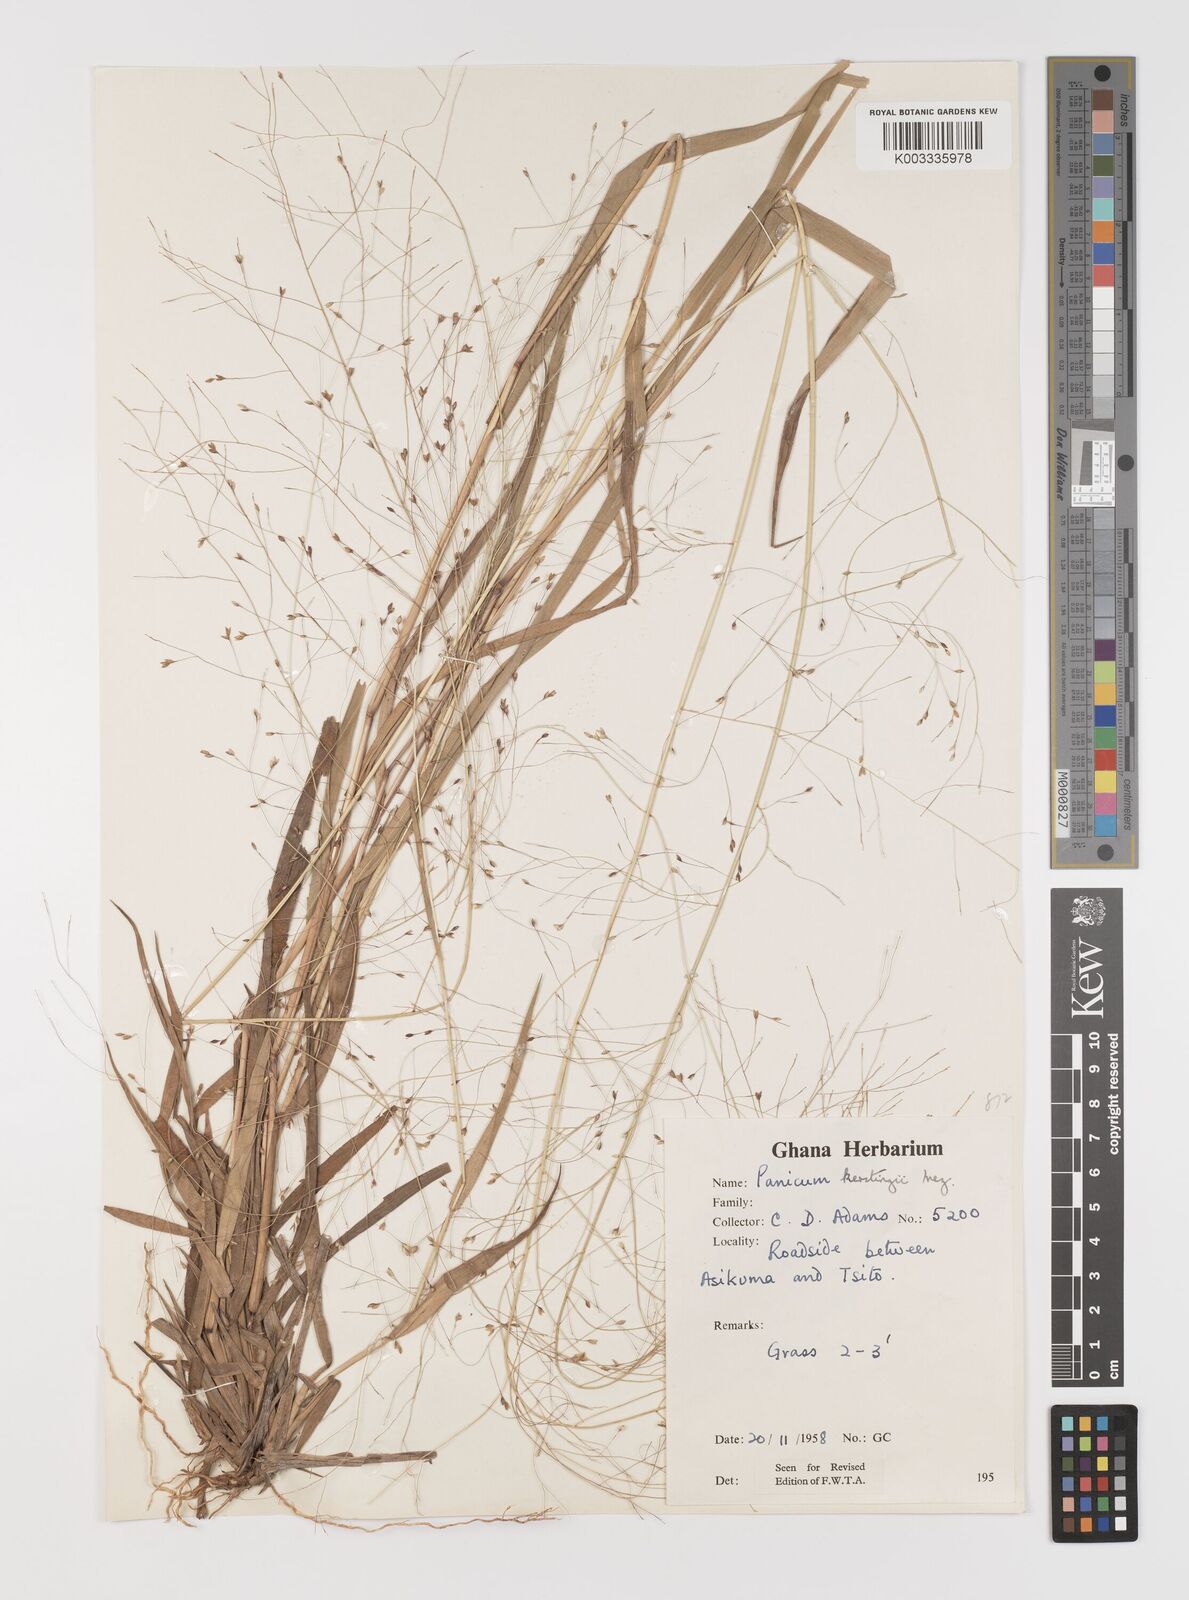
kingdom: Plantae
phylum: Tracheophyta
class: Liliopsida
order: Poales
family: Poaceae
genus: Panicum
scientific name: Panicum pansum
